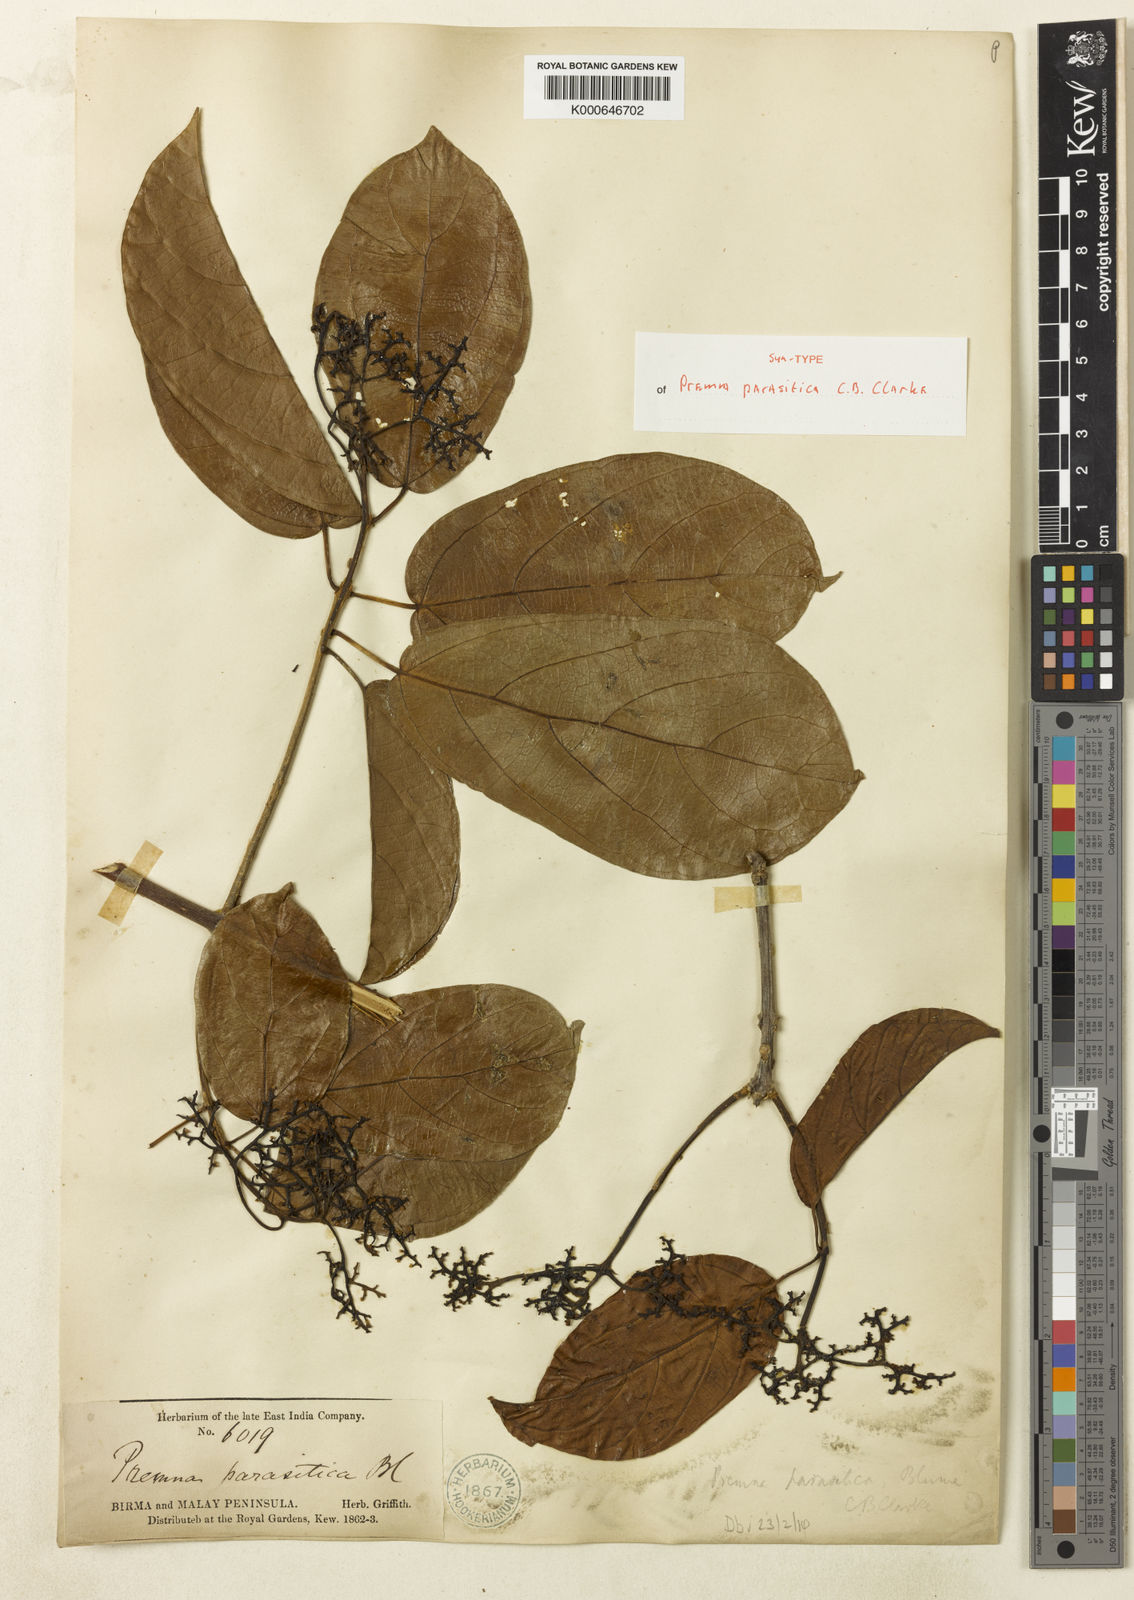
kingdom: Plantae
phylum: Tracheophyta
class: Magnoliopsida
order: Lamiales
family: Lamiaceae
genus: Premna
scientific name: Premna trichostoma
